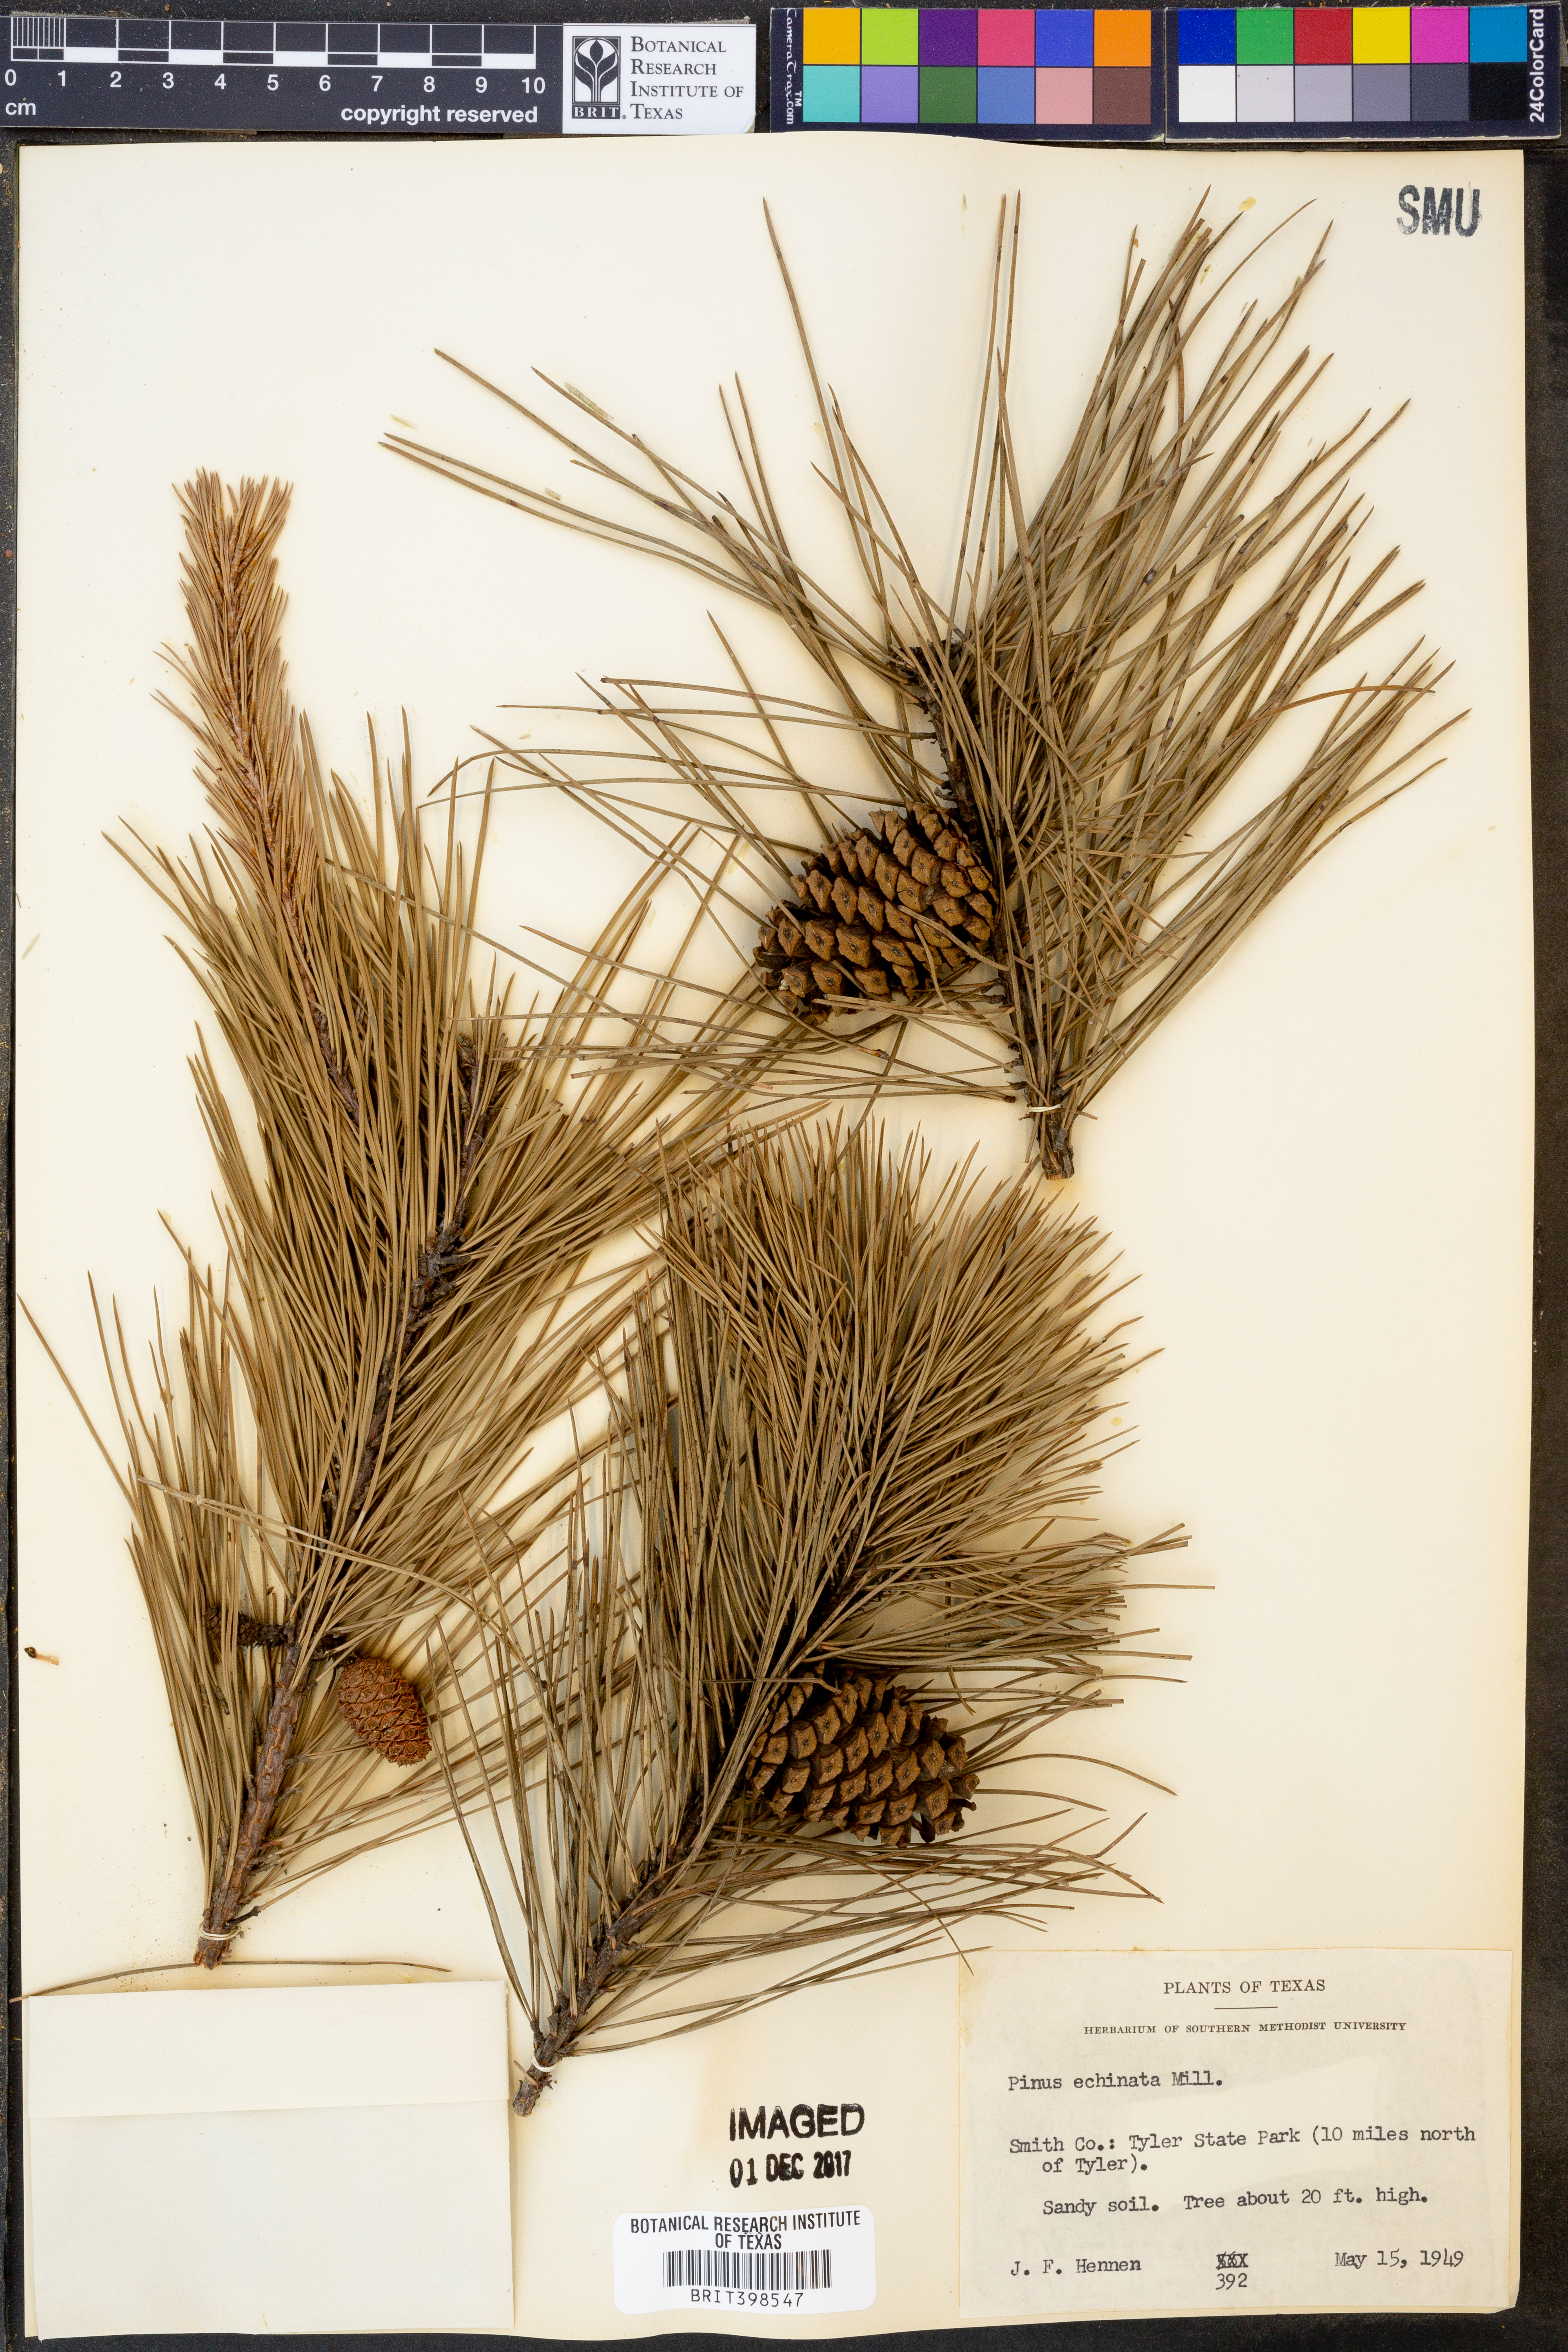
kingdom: Plantae
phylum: Tracheophyta
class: Pinopsida
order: Pinales
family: Pinaceae
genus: Pinus
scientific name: Pinus echinata
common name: Shortleaf pine
